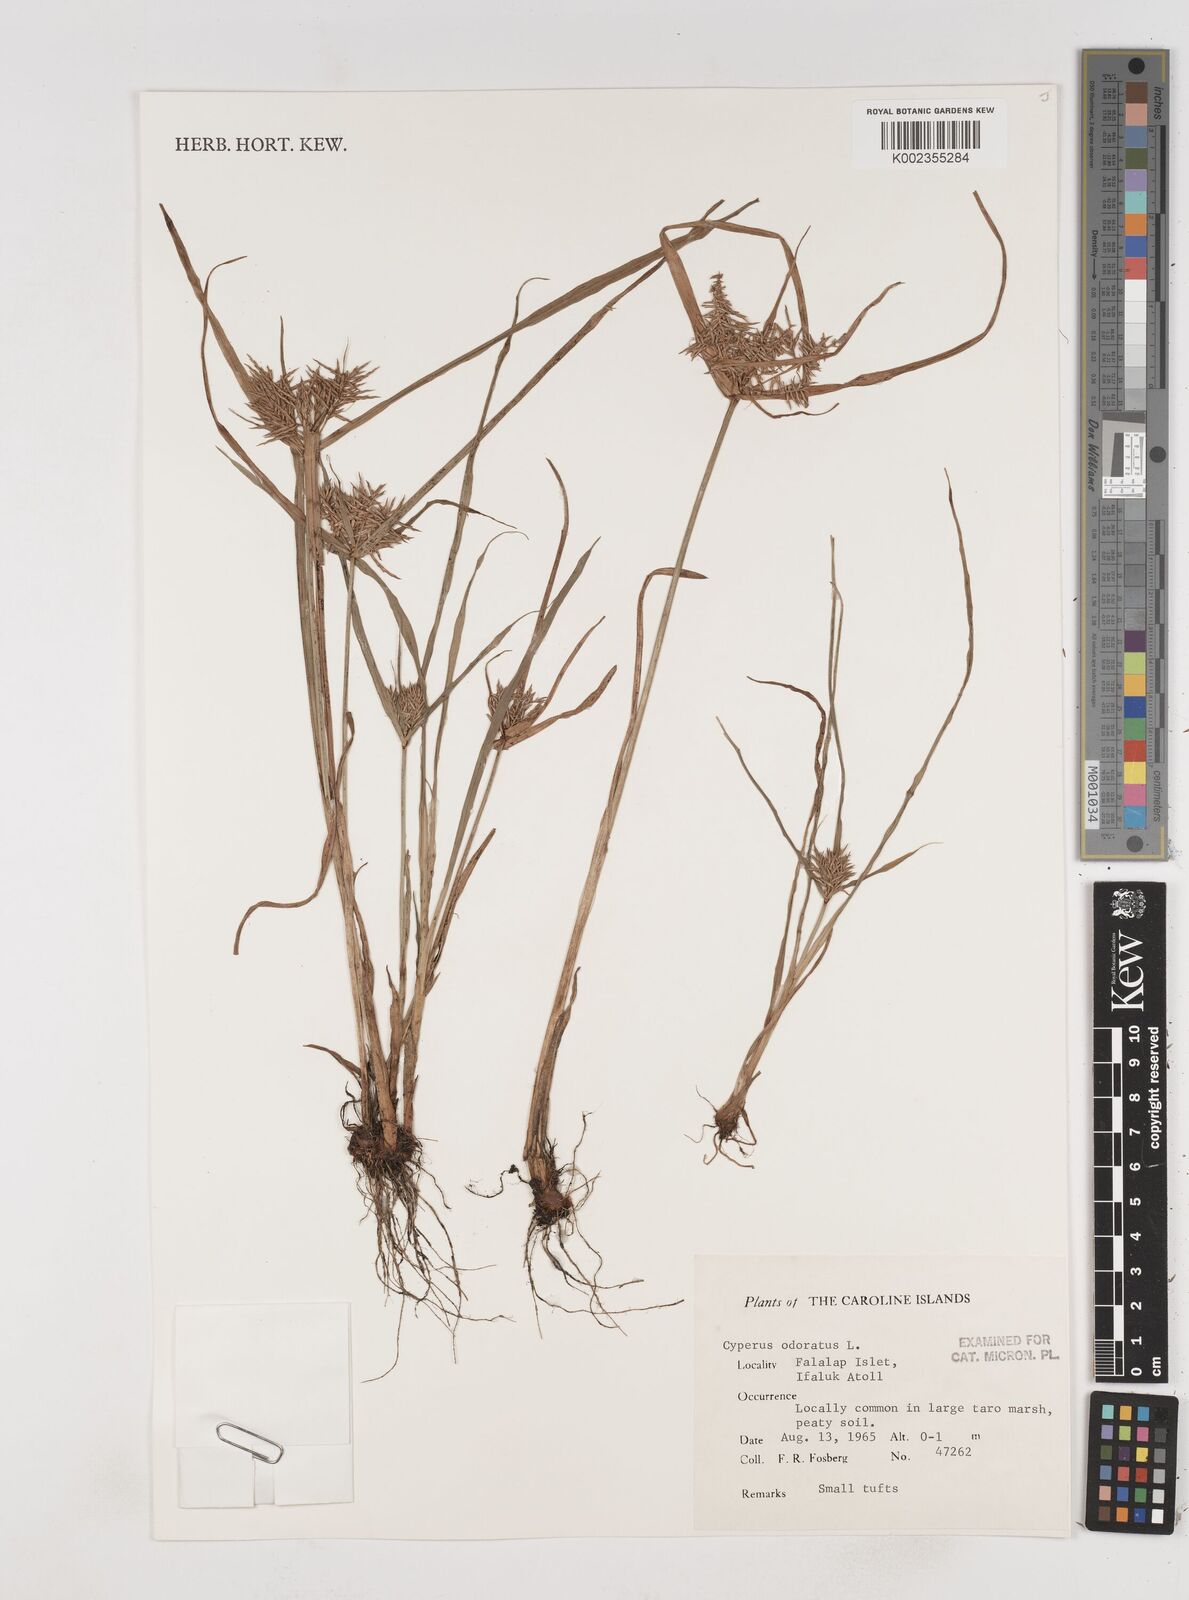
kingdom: Plantae
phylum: Tracheophyta
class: Liliopsida
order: Poales
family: Cyperaceae
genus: Cyperus
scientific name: Cyperus odoratus
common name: Fragrant flatsedge
